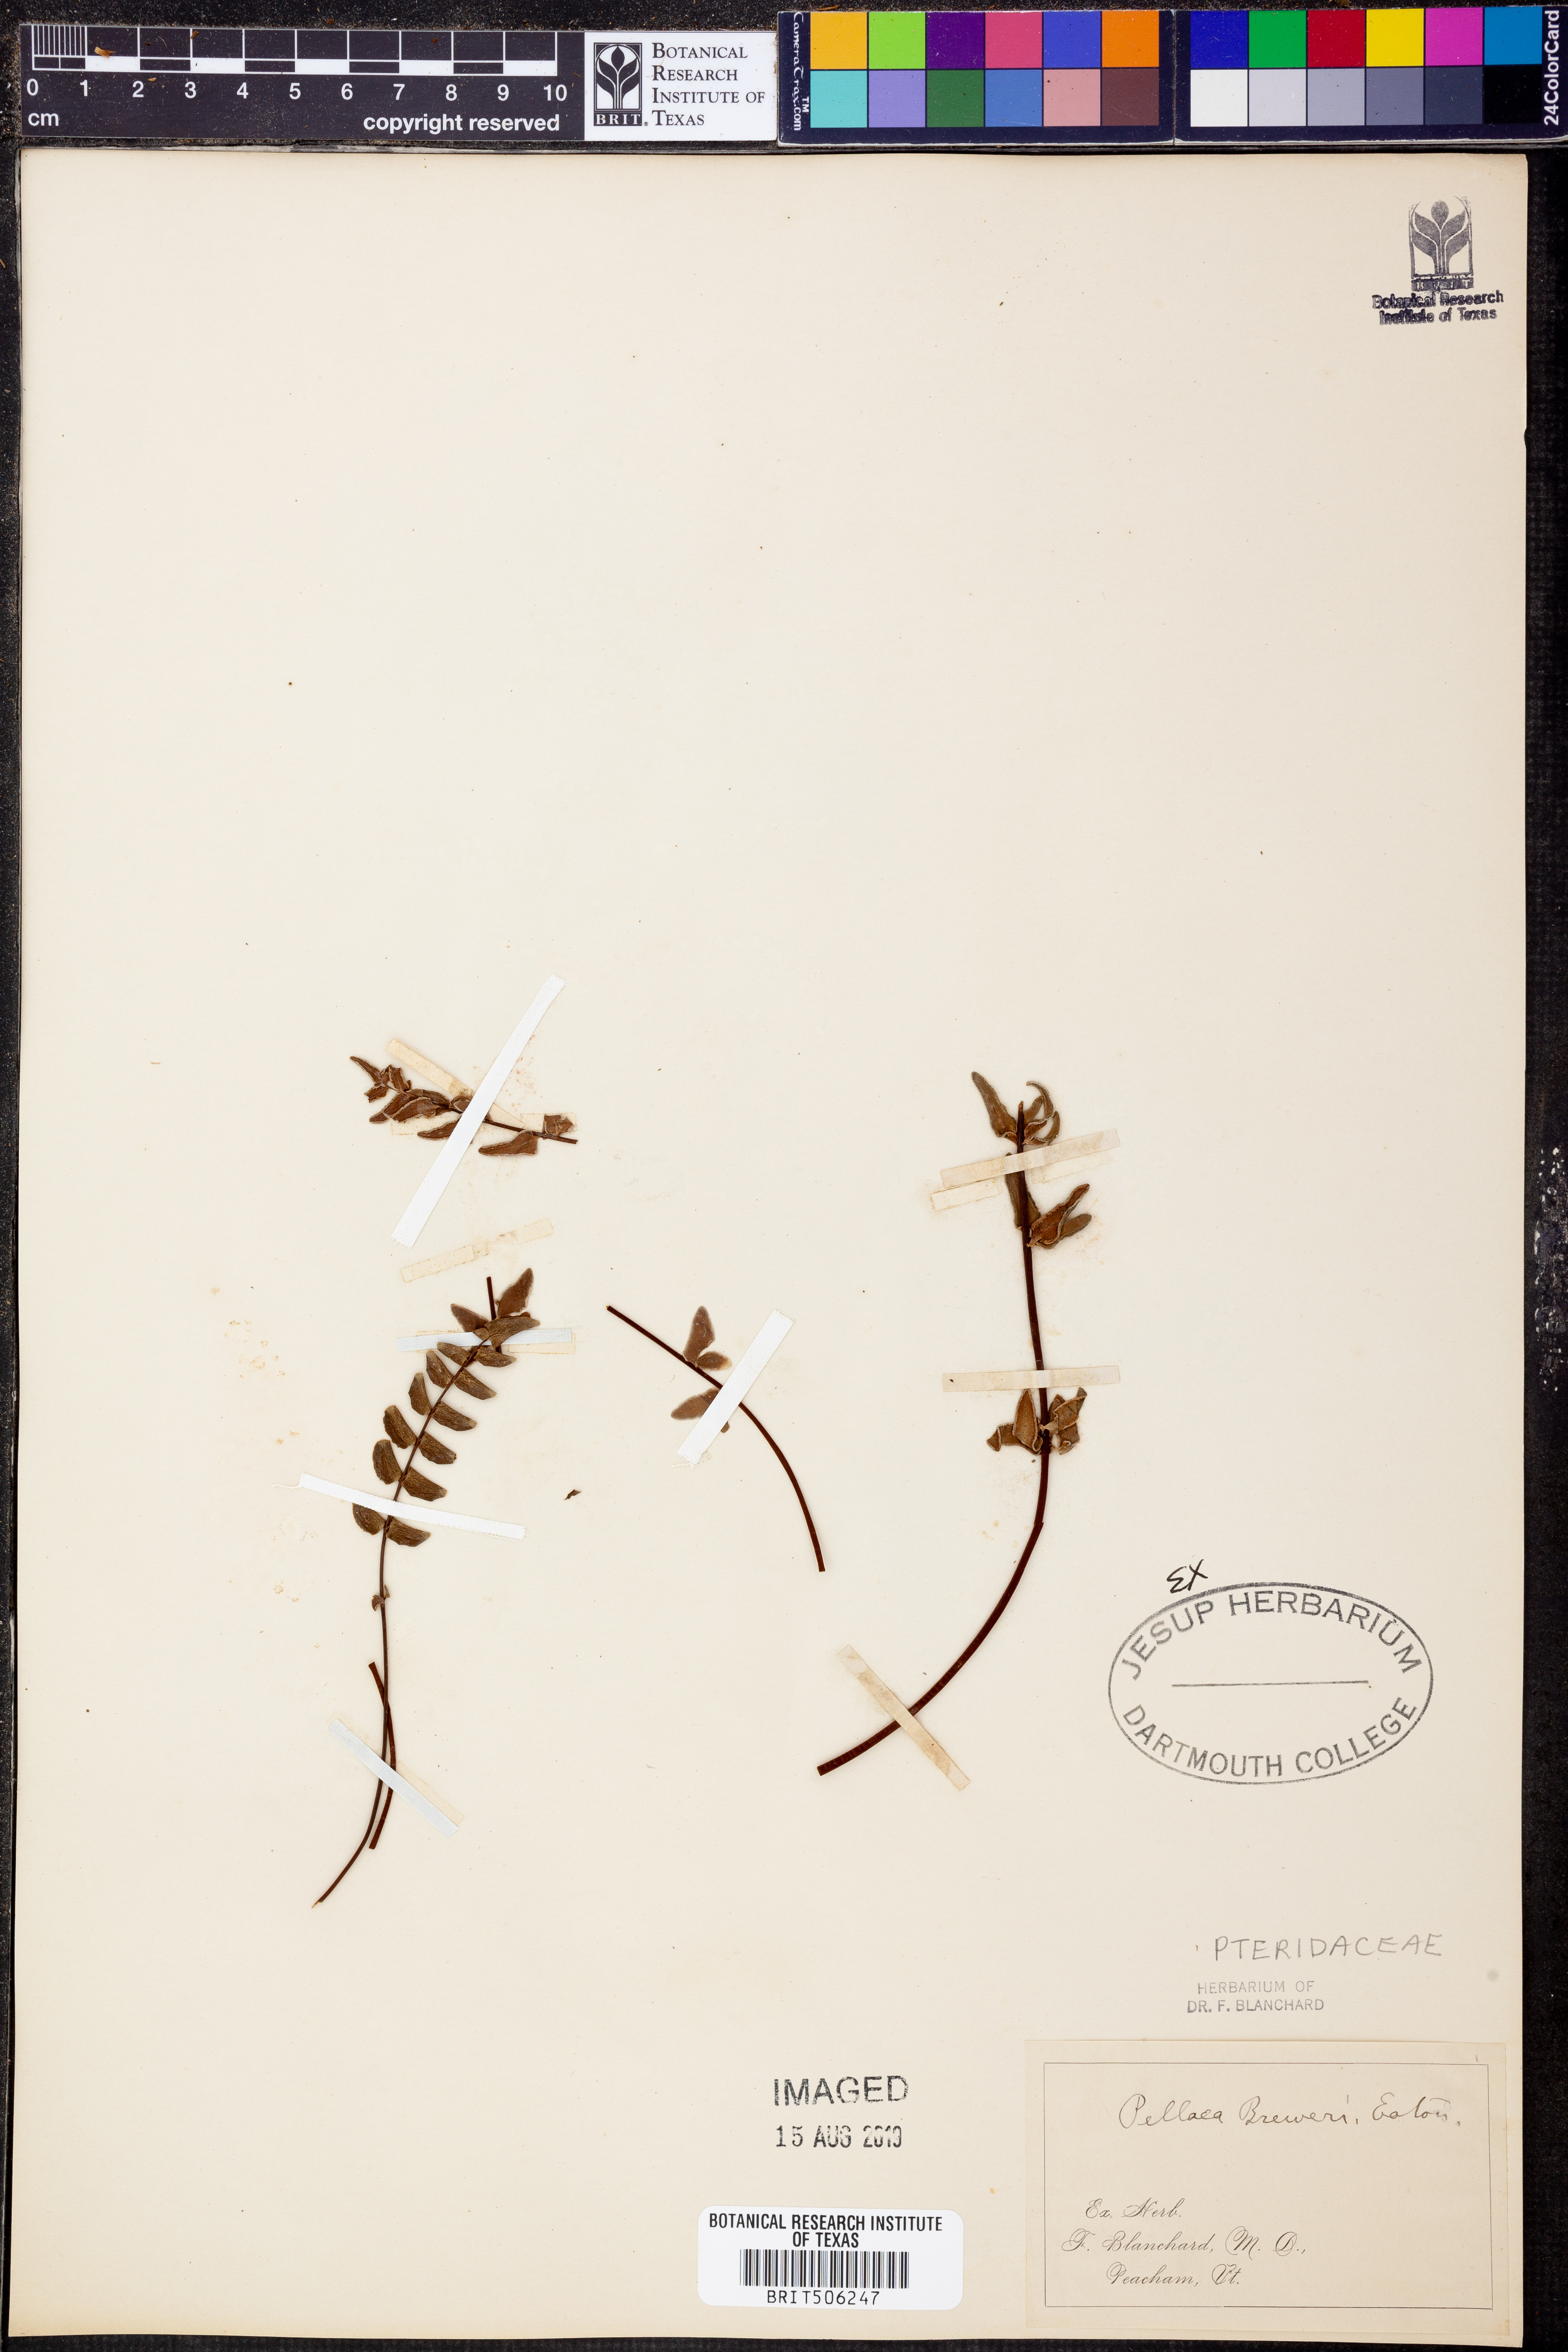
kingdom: Plantae
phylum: Tracheophyta
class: Polypodiopsida
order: Polypodiales
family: Pteridaceae
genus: Pellaea
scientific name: Pellaea breweri
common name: Brewer's cliffbrake
